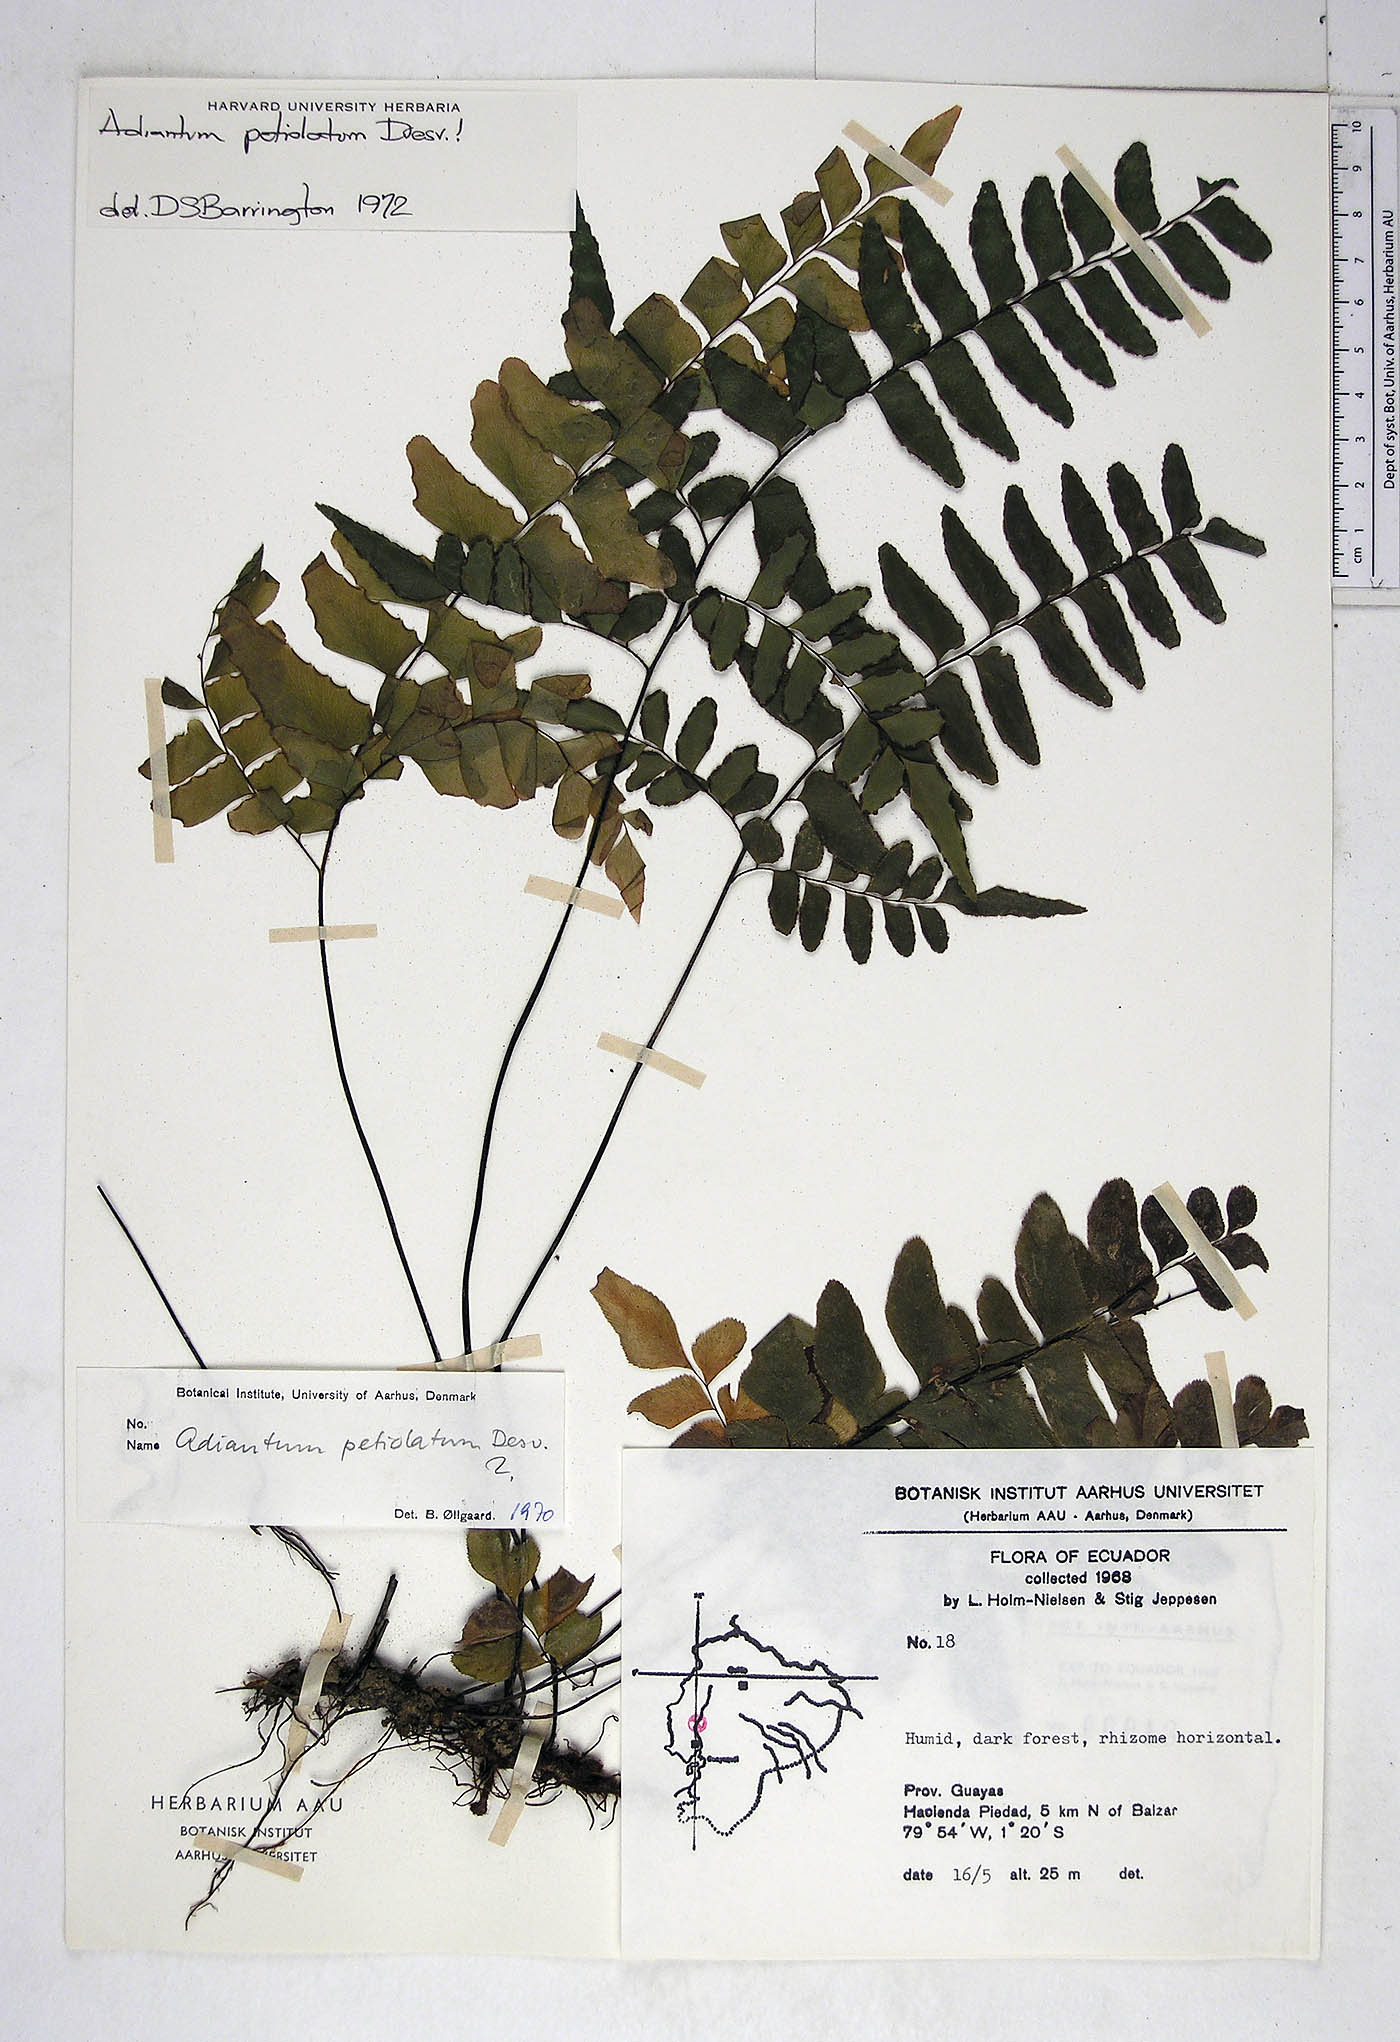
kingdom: Plantae
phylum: Tracheophyta
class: Polypodiopsida
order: Polypodiales
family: Pteridaceae
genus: Adiantum
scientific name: Adiantum petiolatum
